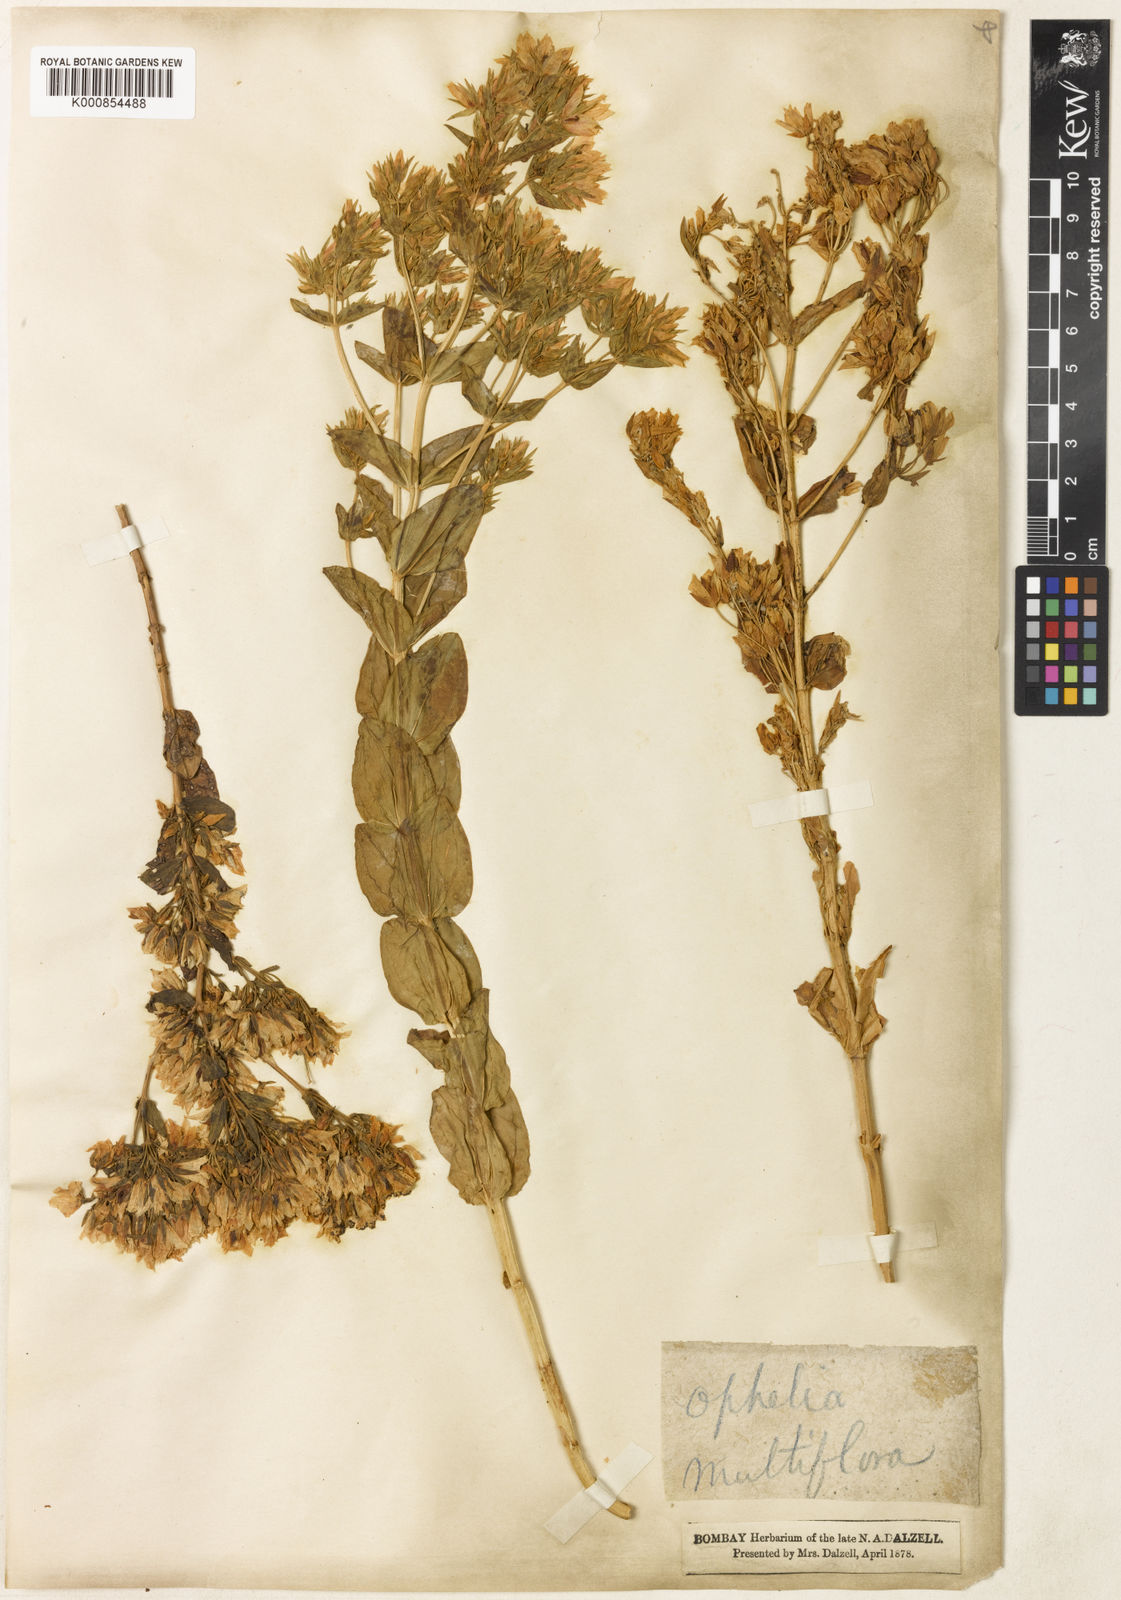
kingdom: Plantae
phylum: Tracheophyta
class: Magnoliopsida
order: Gentianales
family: Gentianaceae
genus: Swertia
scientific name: Swertia densifolia
